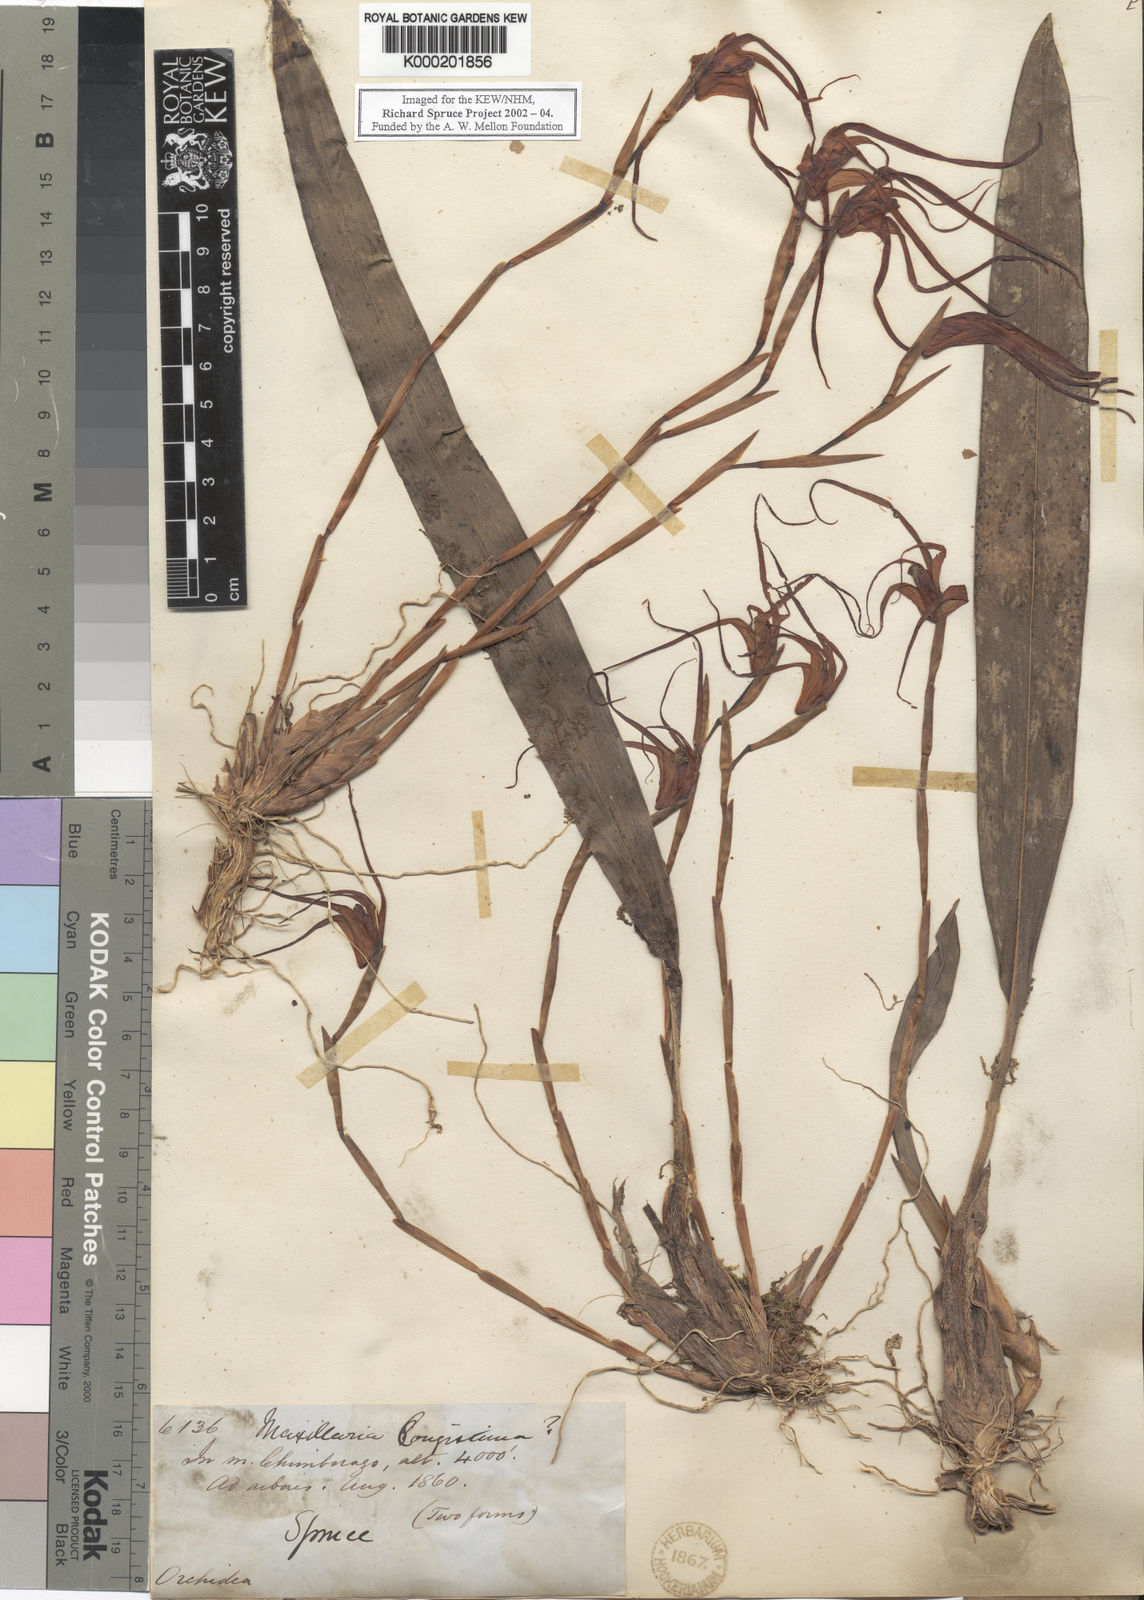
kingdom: Plantae
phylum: Tracheophyta
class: Liliopsida
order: Asparagales
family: Orchidaceae
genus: Maxillaria
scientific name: Maxillaria lepidota
